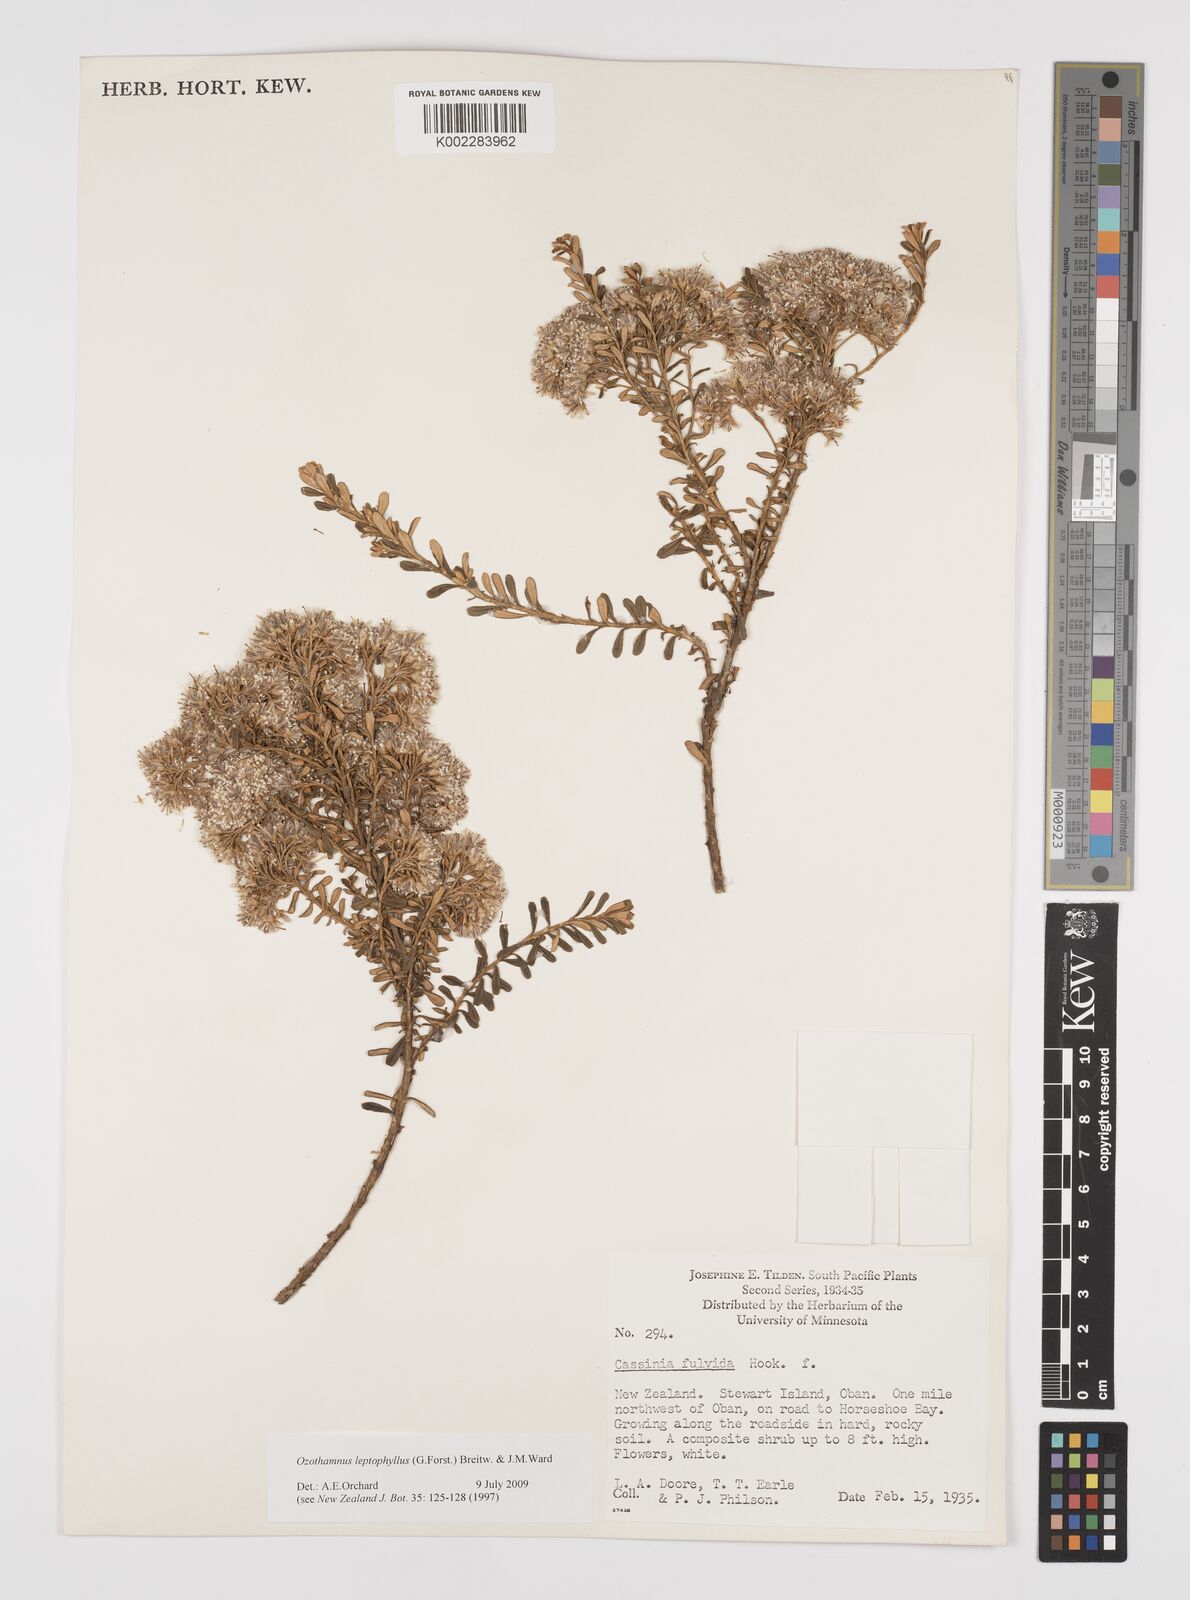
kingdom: Plantae
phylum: Tracheophyta
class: Magnoliopsida
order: Asterales
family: Asteraceae
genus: Ozothamnus
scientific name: Ozothamnus leptophyllus
